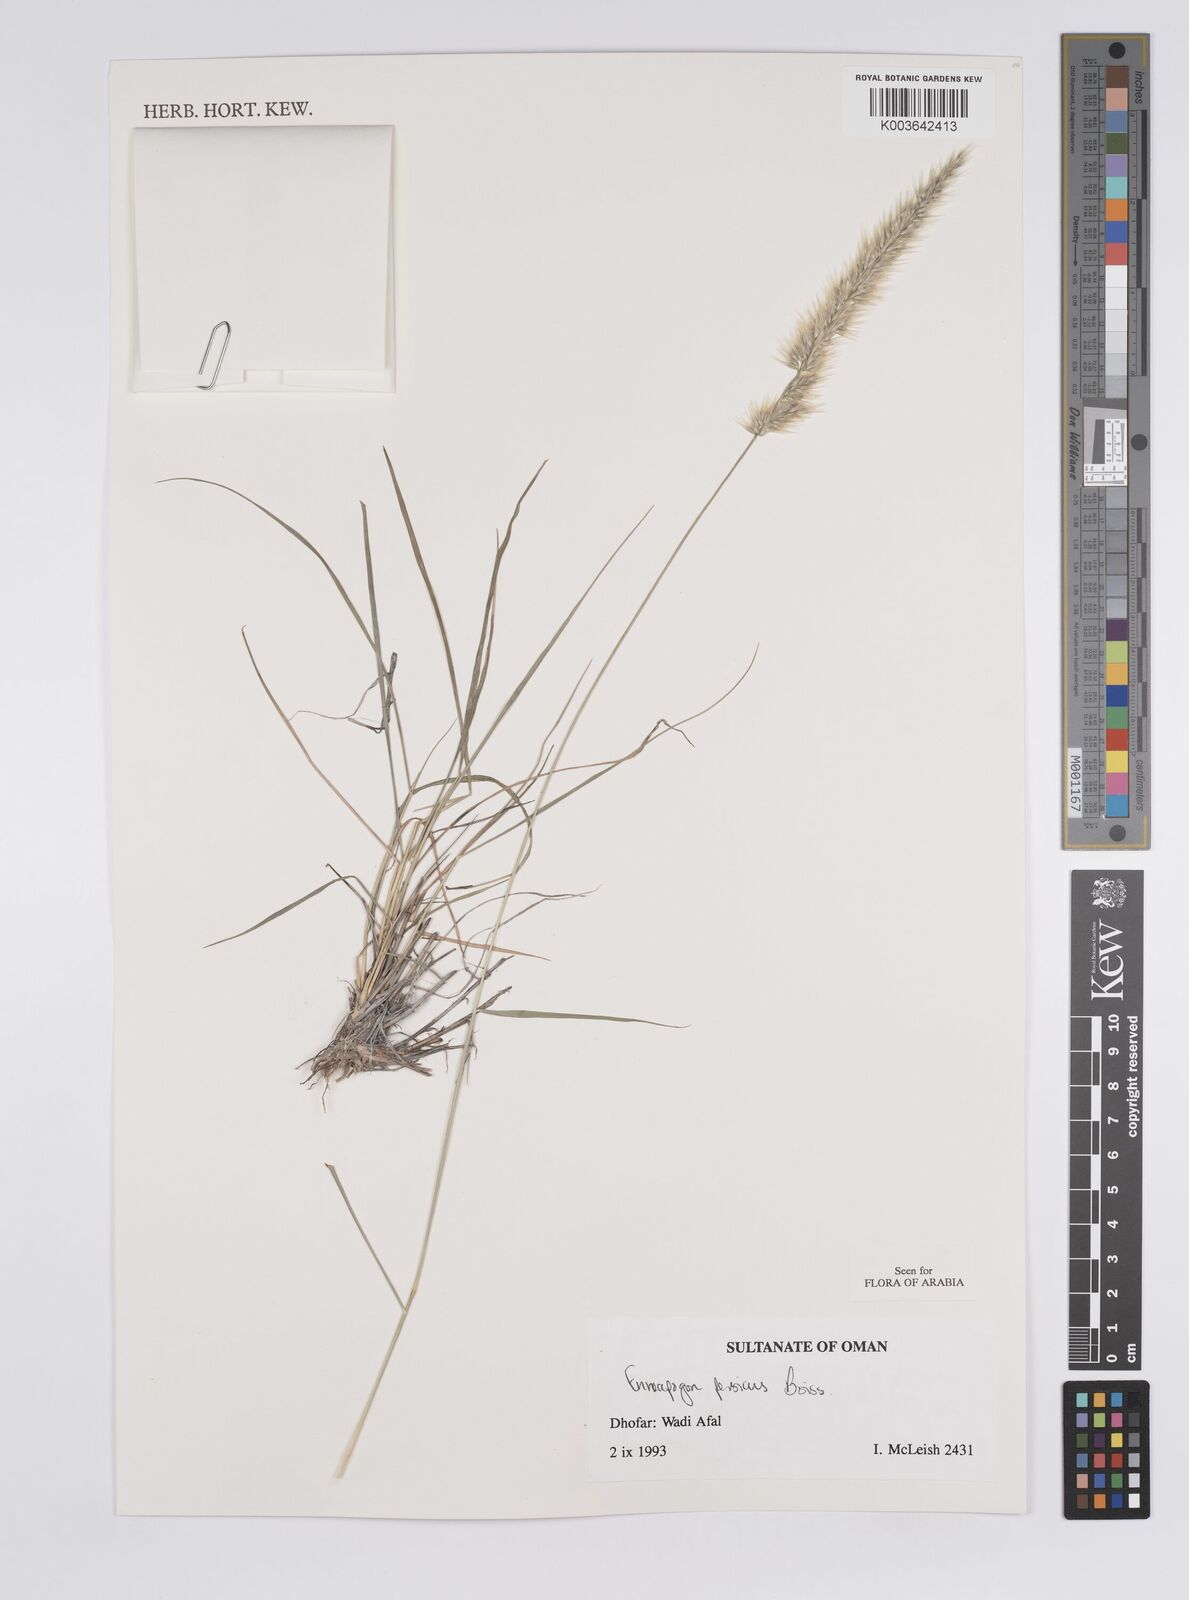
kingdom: Plantae
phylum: Tracheophyta
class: Liliopsida
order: Poales
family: Poaceae
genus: Enneapogon
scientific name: Enneapogon persicus
